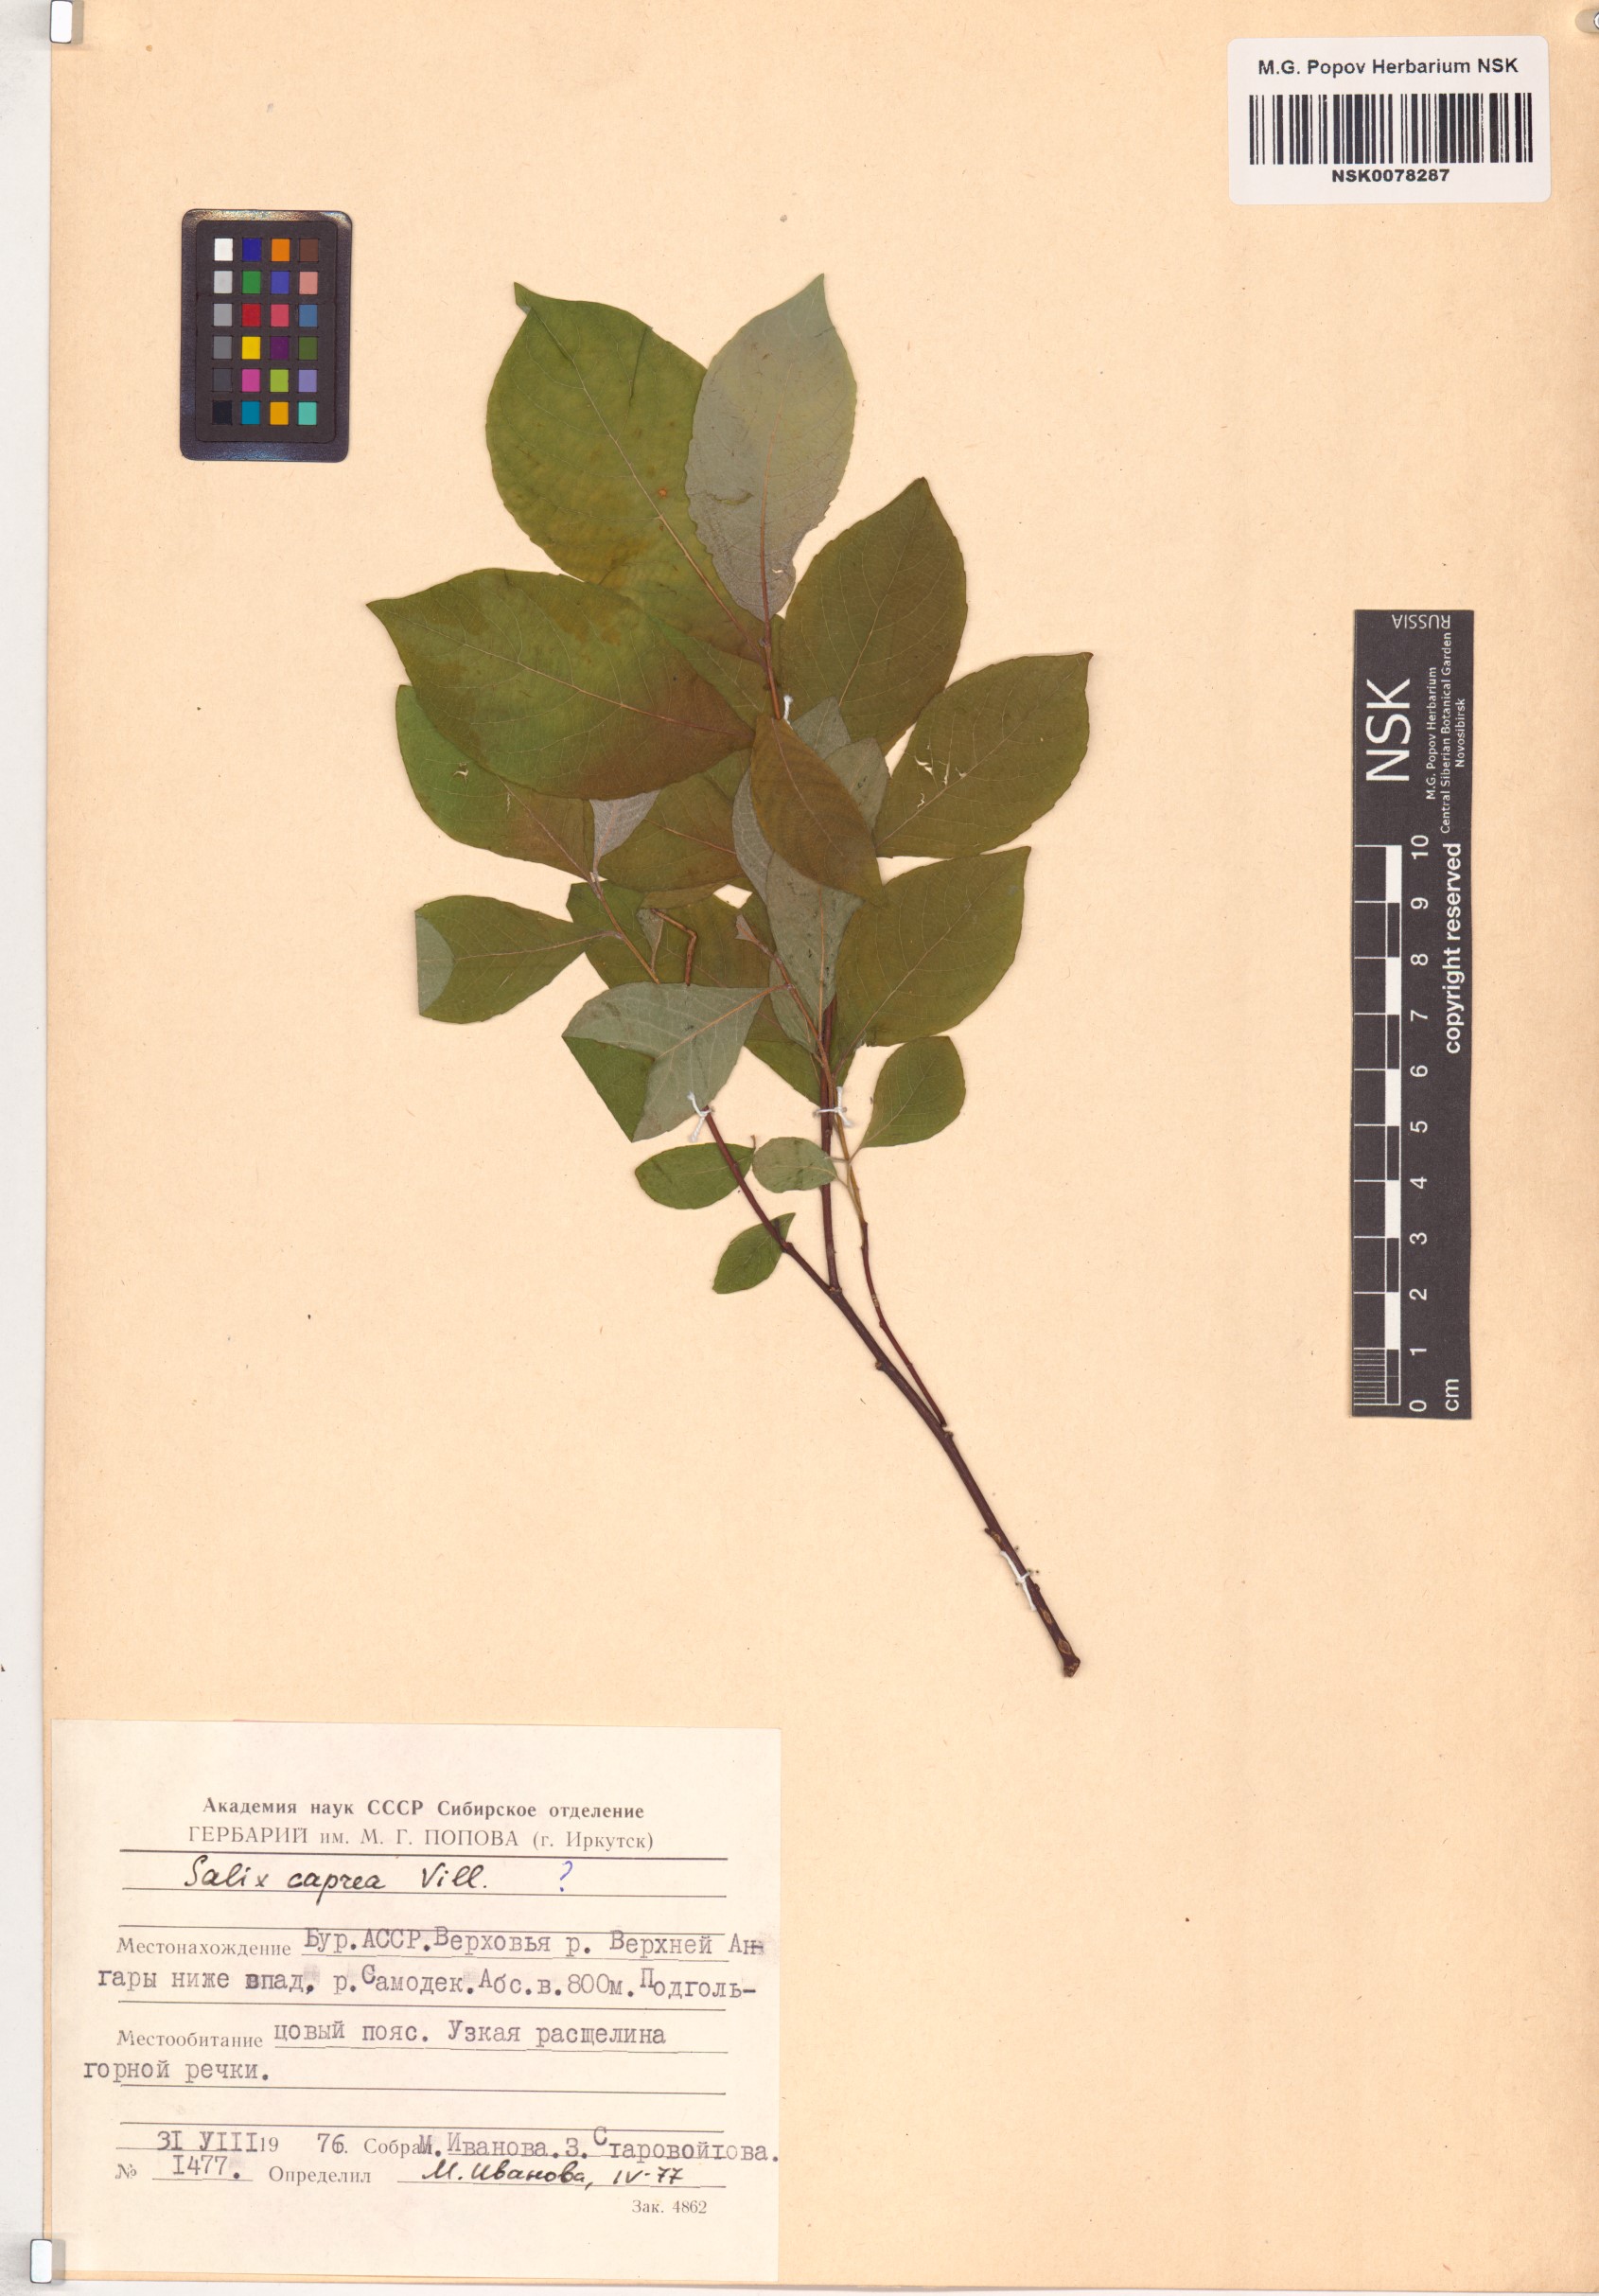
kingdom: Plantae
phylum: Tracheophyta
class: Magnoliopsida
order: Malpighiales
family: Salicaceae
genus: Salix
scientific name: Salix caprea
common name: Goat willow
